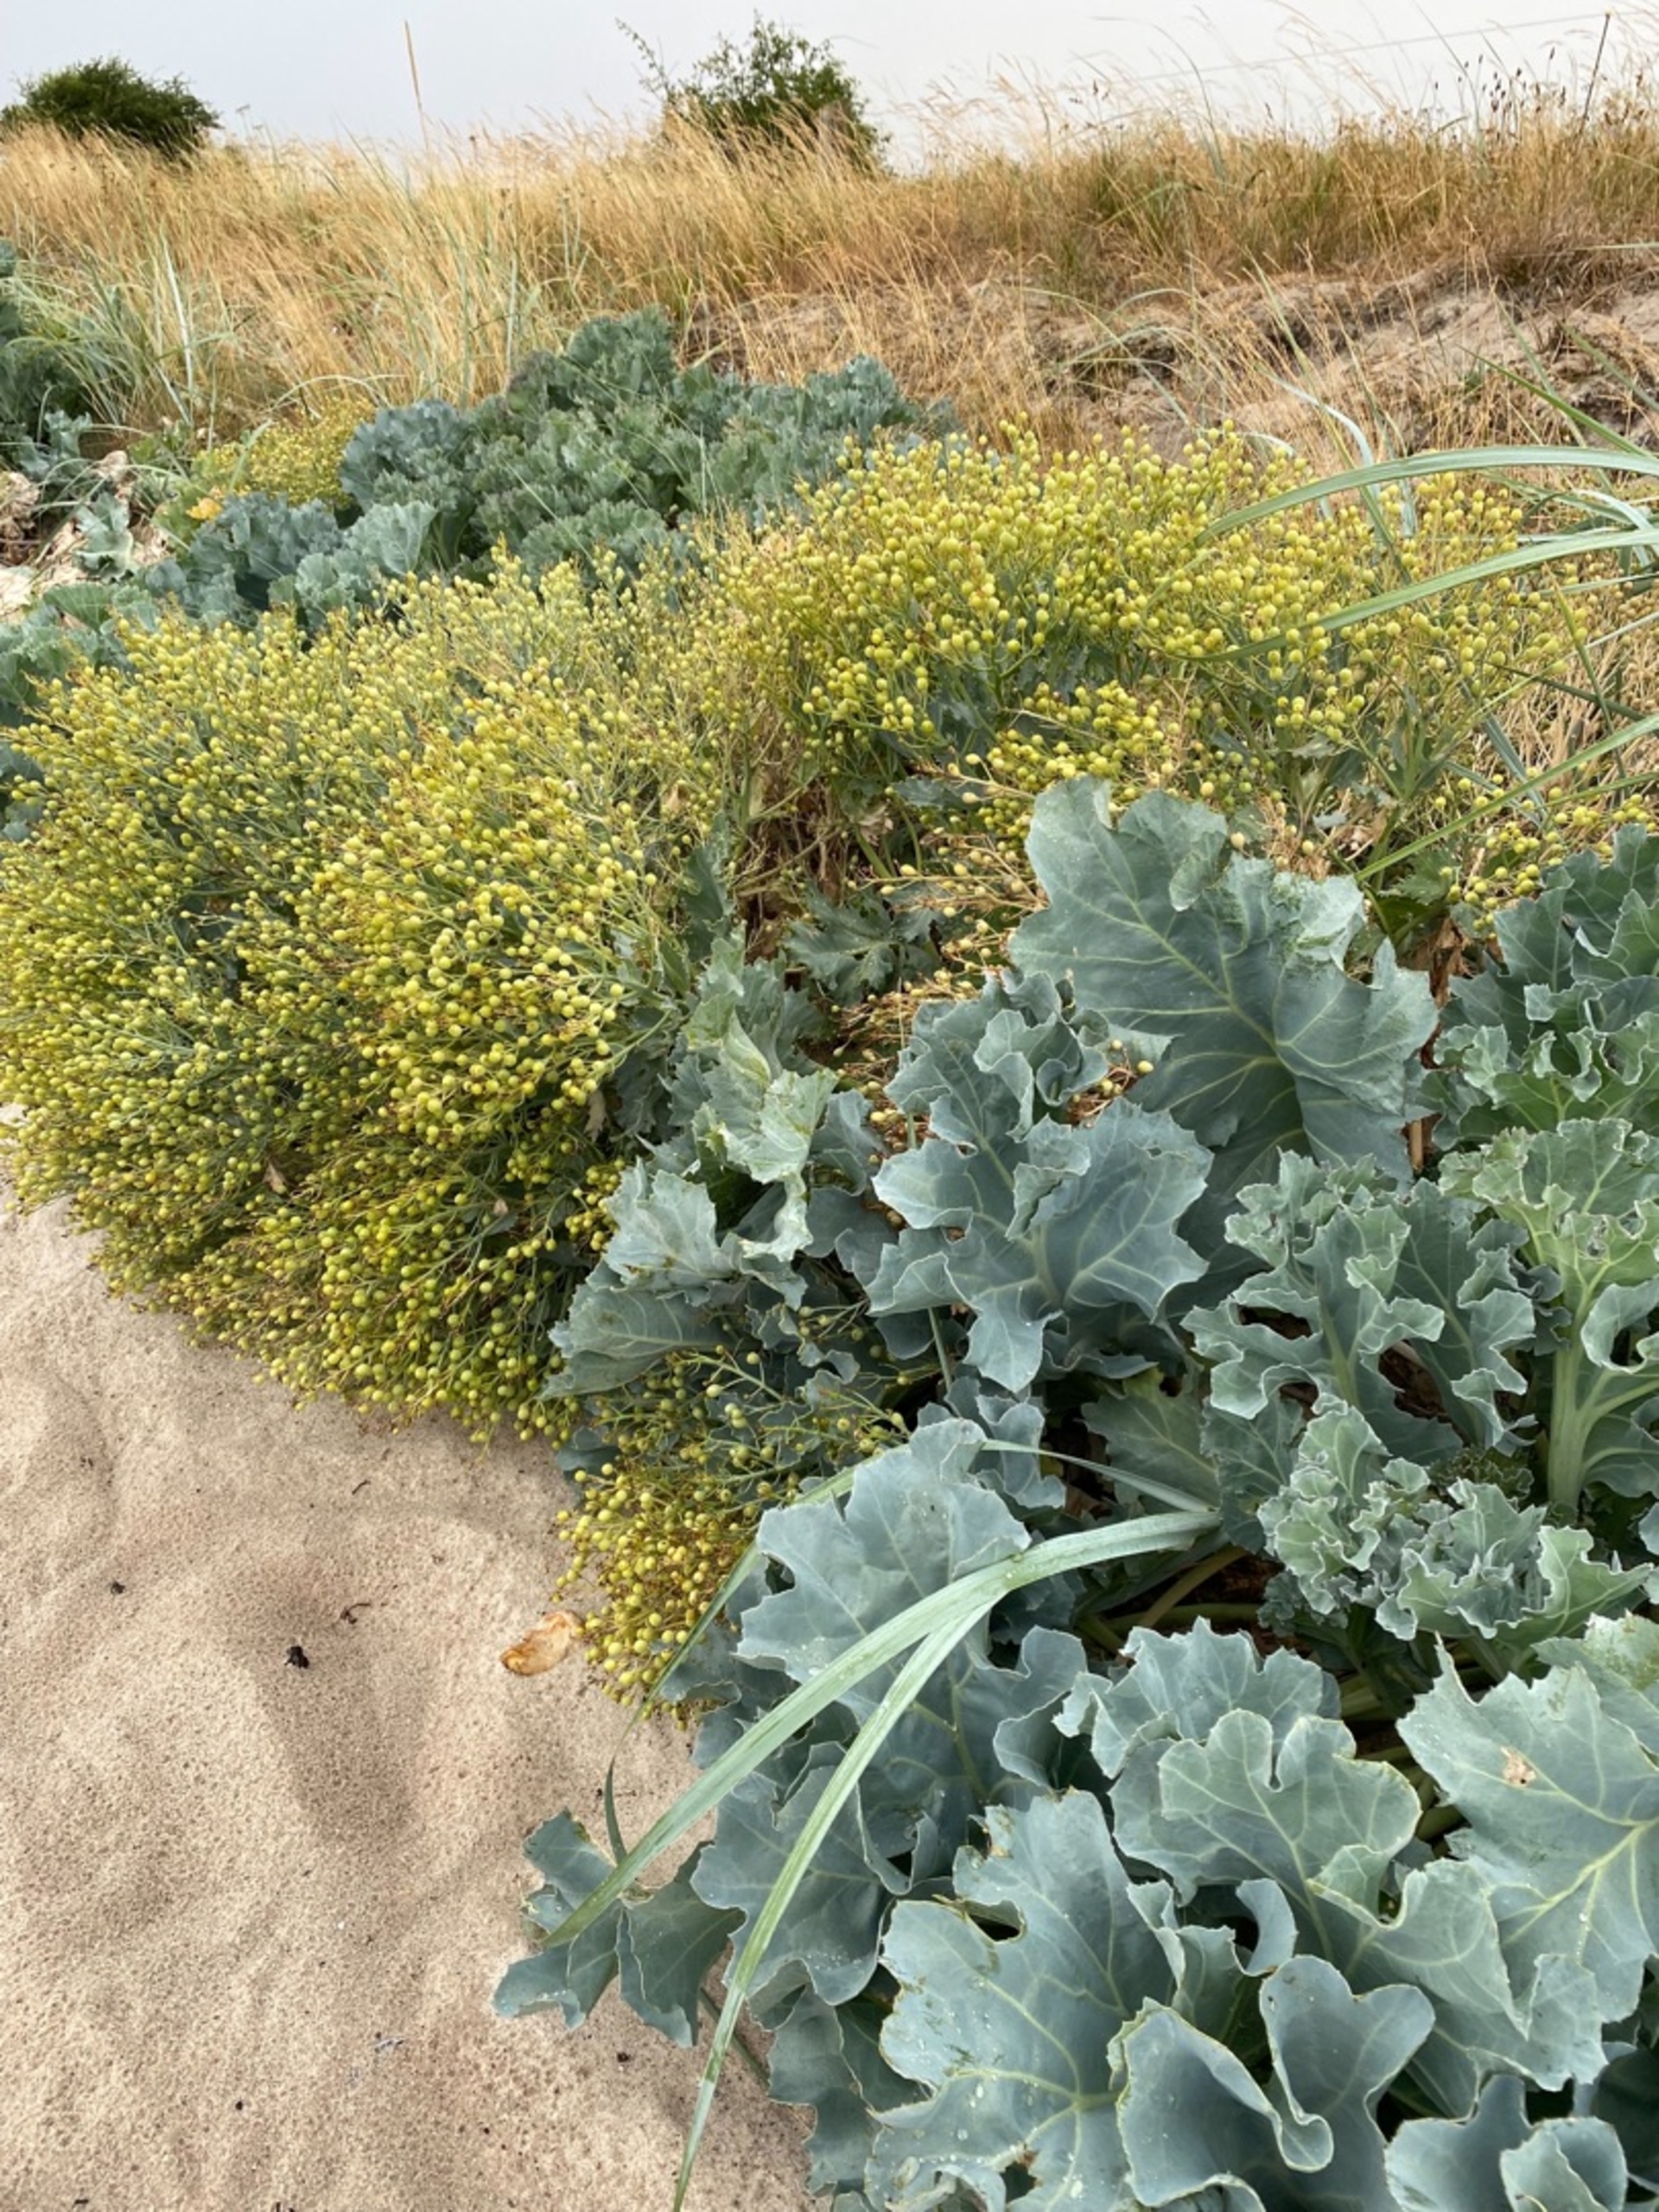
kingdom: Plantae
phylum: Tracheophyta
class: Magnoliopsida
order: Brassicales
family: Brassicaceae
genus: Crambe
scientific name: Crambe maritima
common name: Strandkål
